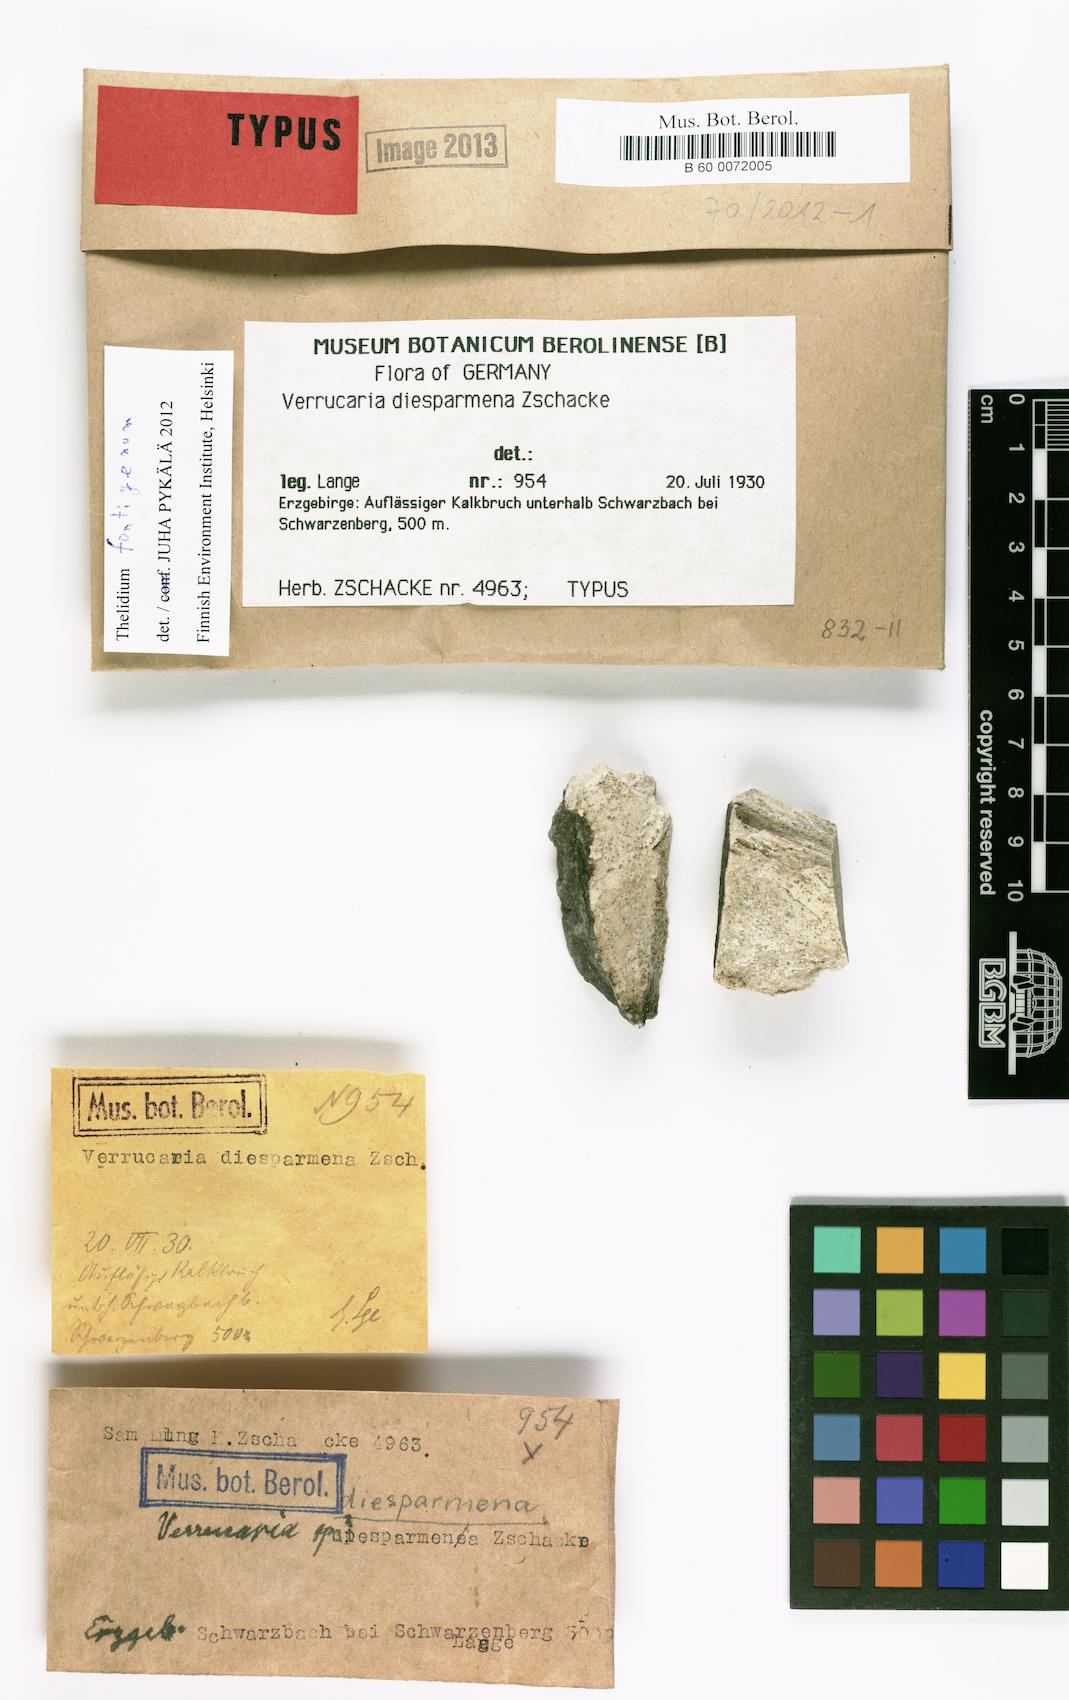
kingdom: Fungi
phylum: Ascomycota
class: Eurotiomycetes
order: Verrucariales
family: Verrucariaceae
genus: Verrucaria
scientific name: Verrucaria
